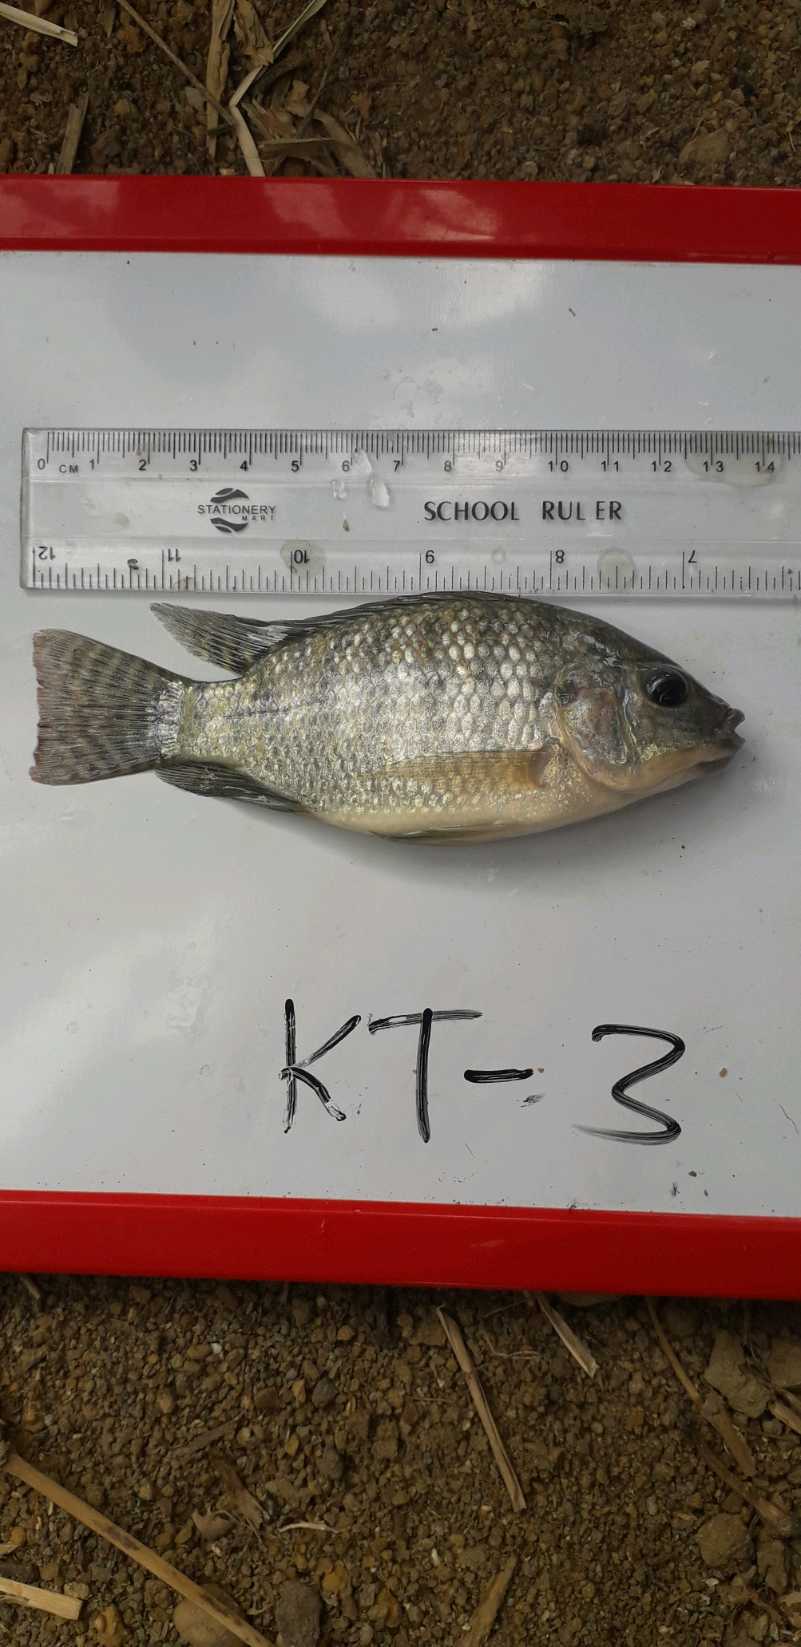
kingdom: Animalia
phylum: Chordata
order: Perciformes
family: Cichlidae
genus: Oreochromis
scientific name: Oreochromis niloticus
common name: Nile tilapia
